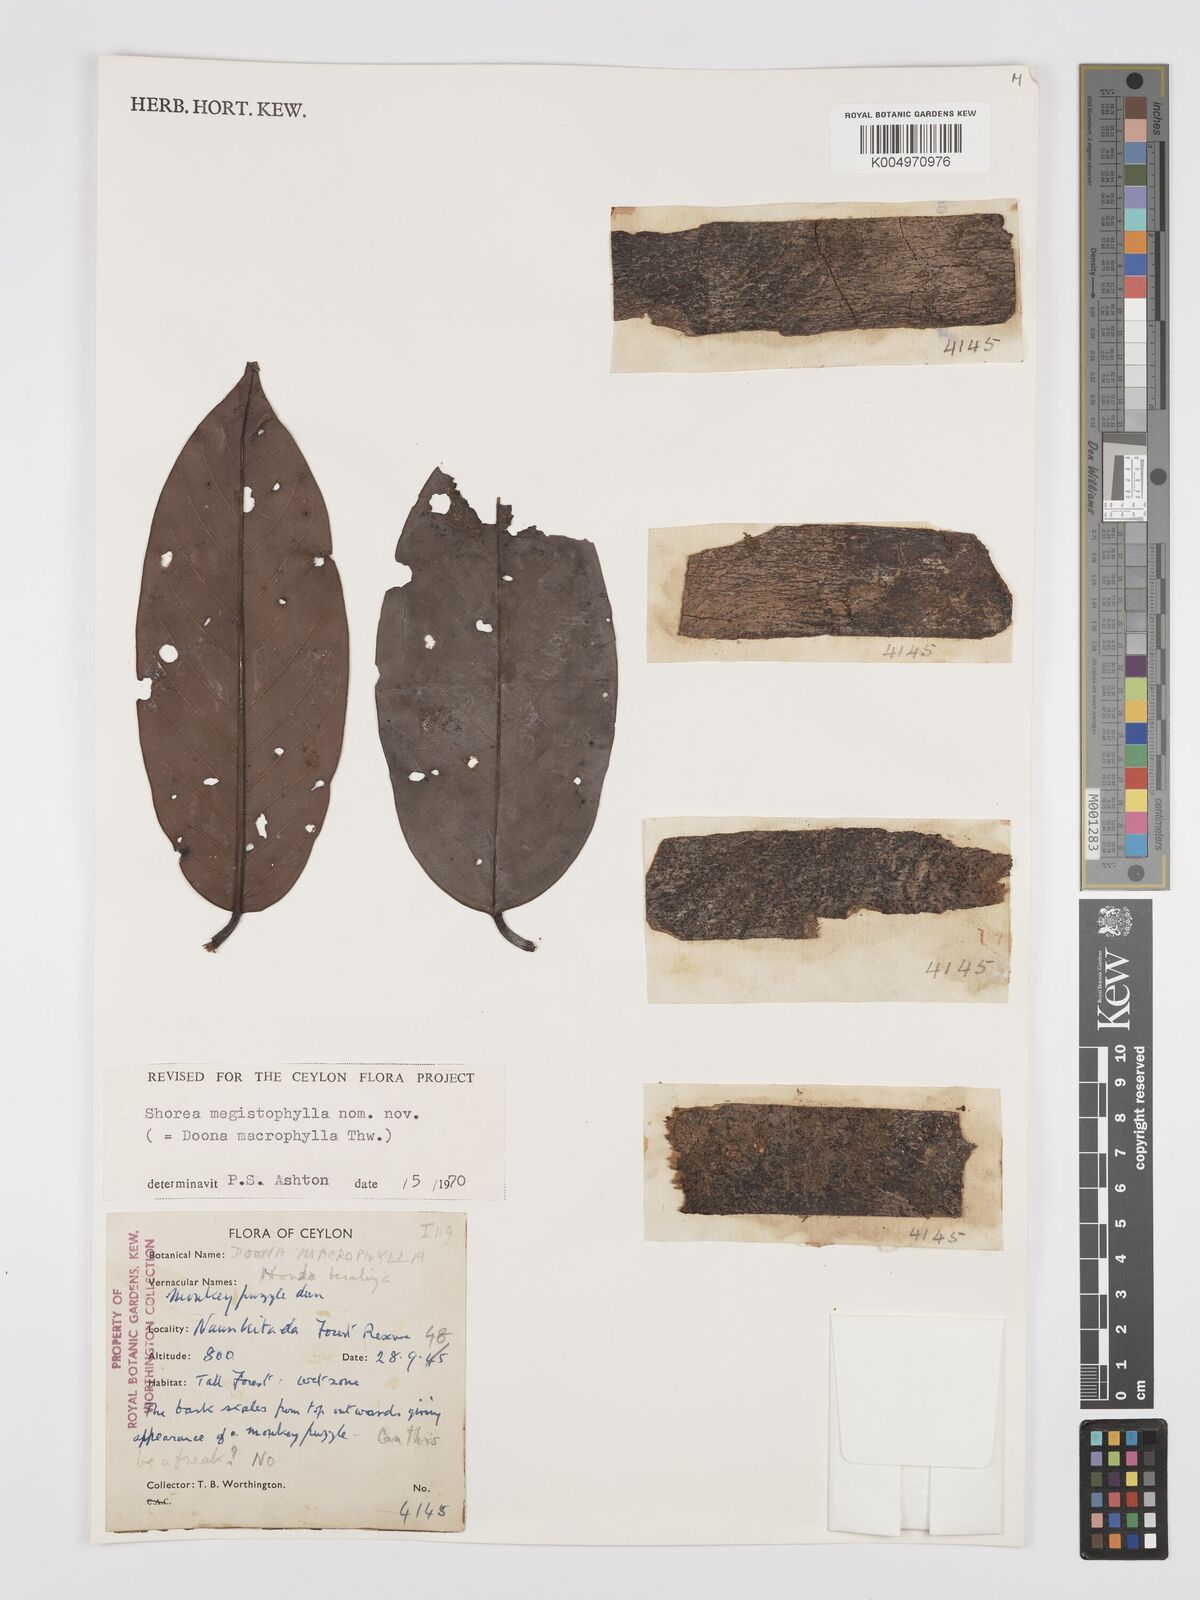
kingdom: Plantae
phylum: Tracheophyta
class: Magnoliopsida
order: Malvales
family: Dipterocarpaceae
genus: Doona
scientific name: Doona macrophylla
